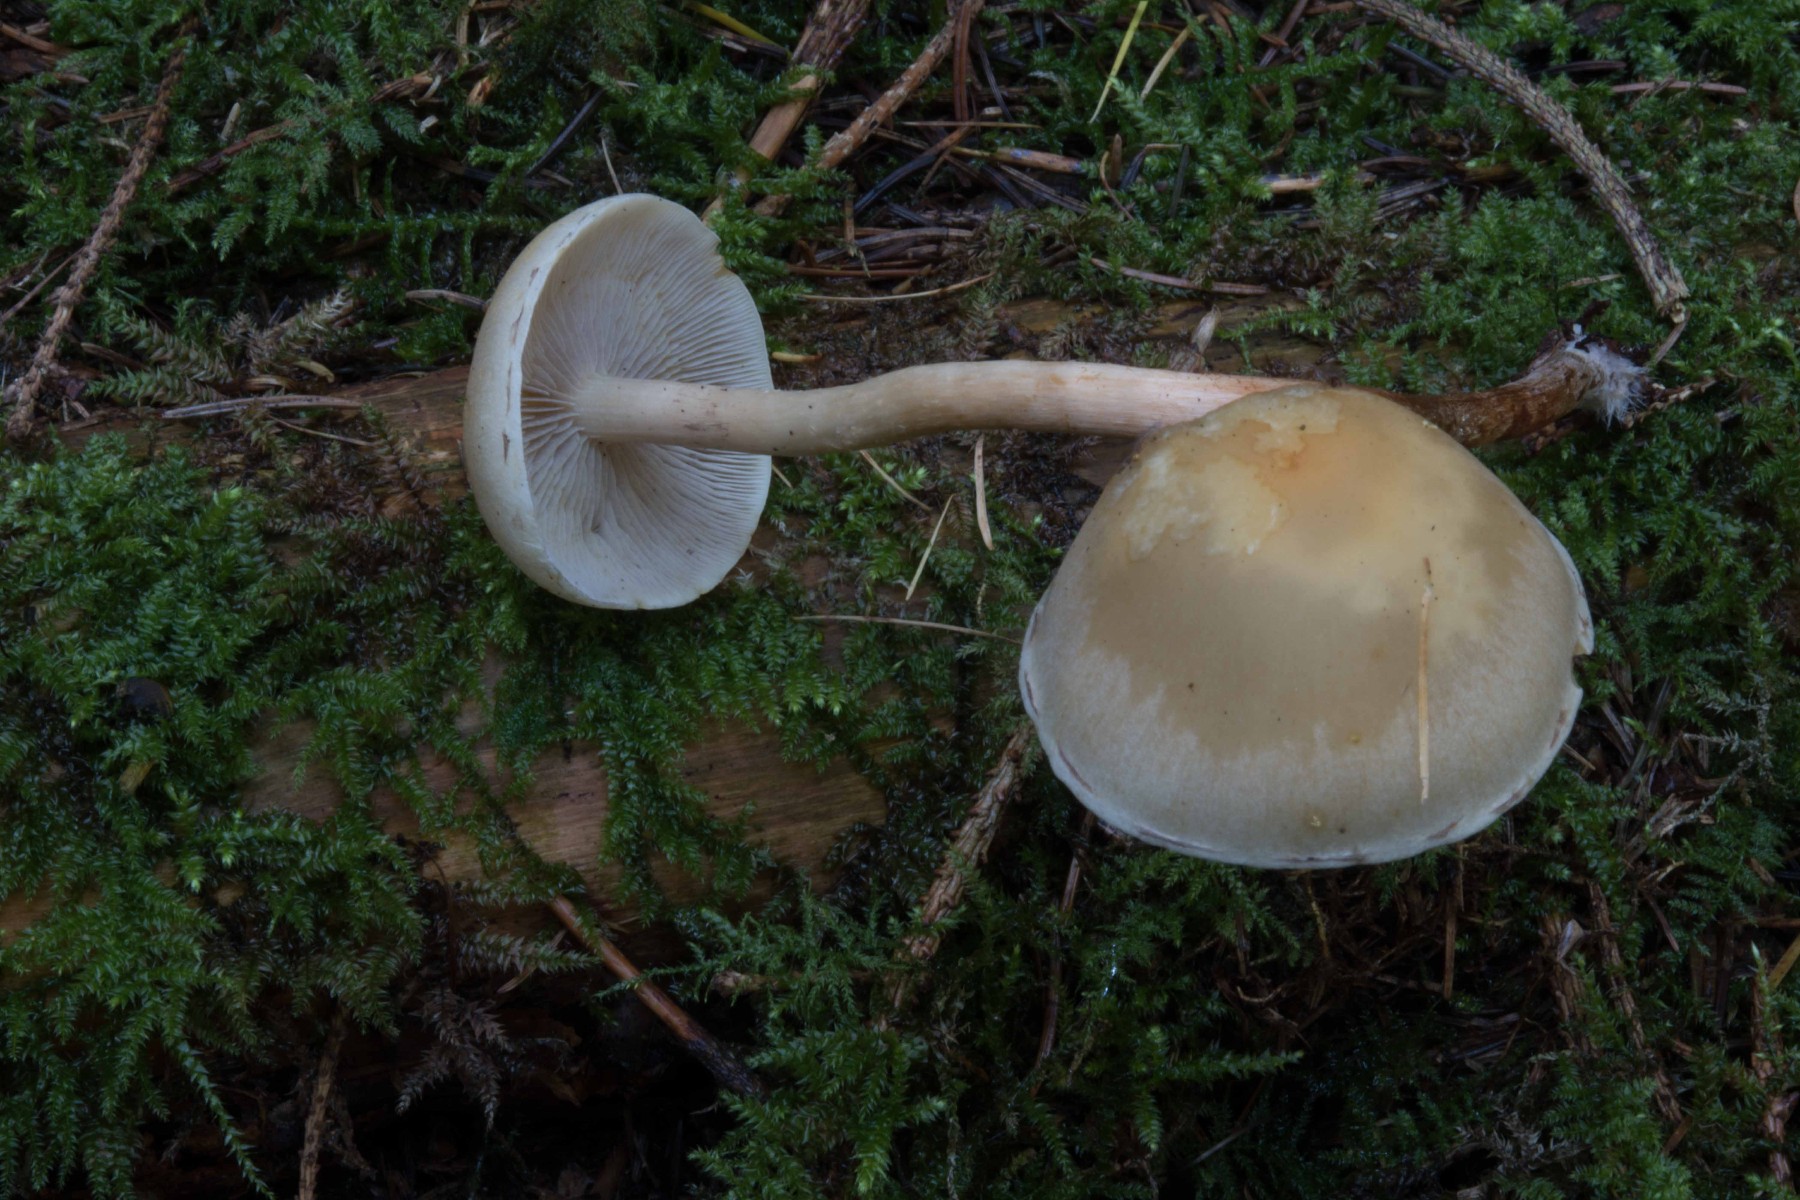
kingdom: Fungi
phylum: Basidiomycota
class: Agaricomycetes
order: Agaricales
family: Strophariaceae
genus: Hypholoma
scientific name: Hypholoma capnoides
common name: gran-svovlhat
